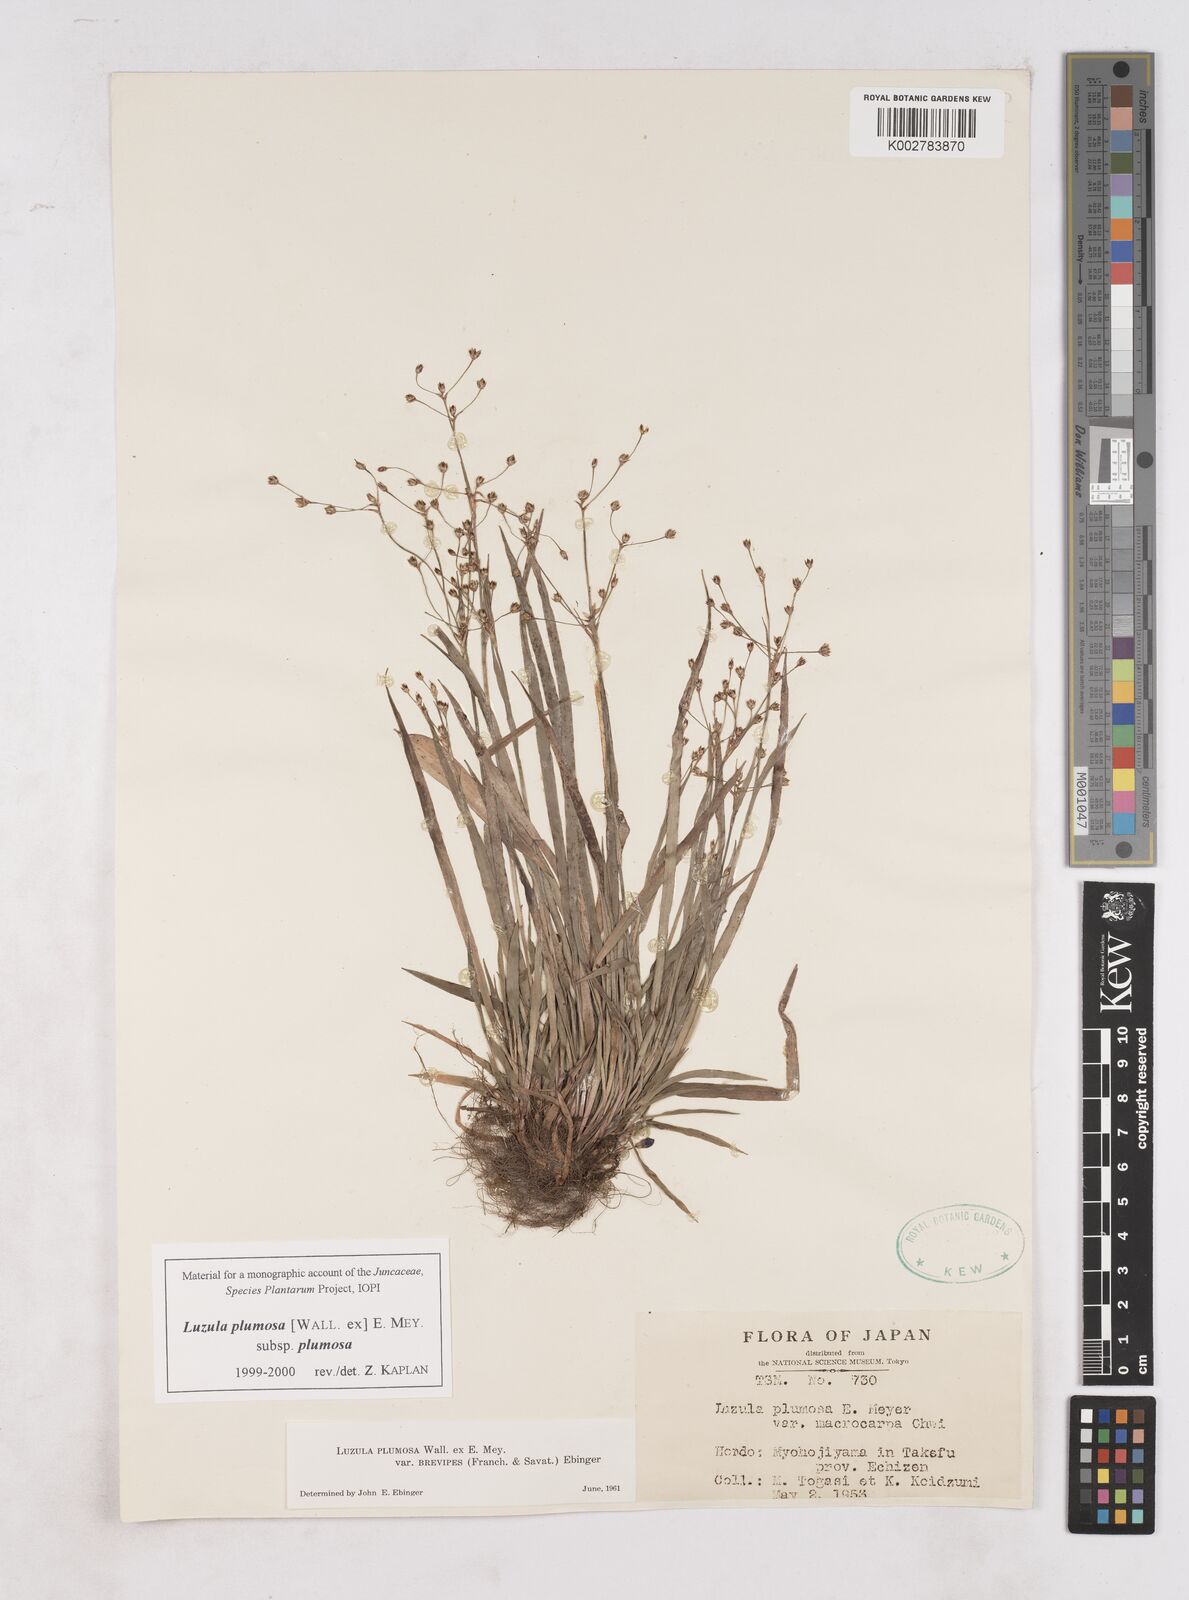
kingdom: Plantae
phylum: Tracheophyta
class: Liliopsida
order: Poales
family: Juncaceae
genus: Luzula
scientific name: Luzula plumosa
